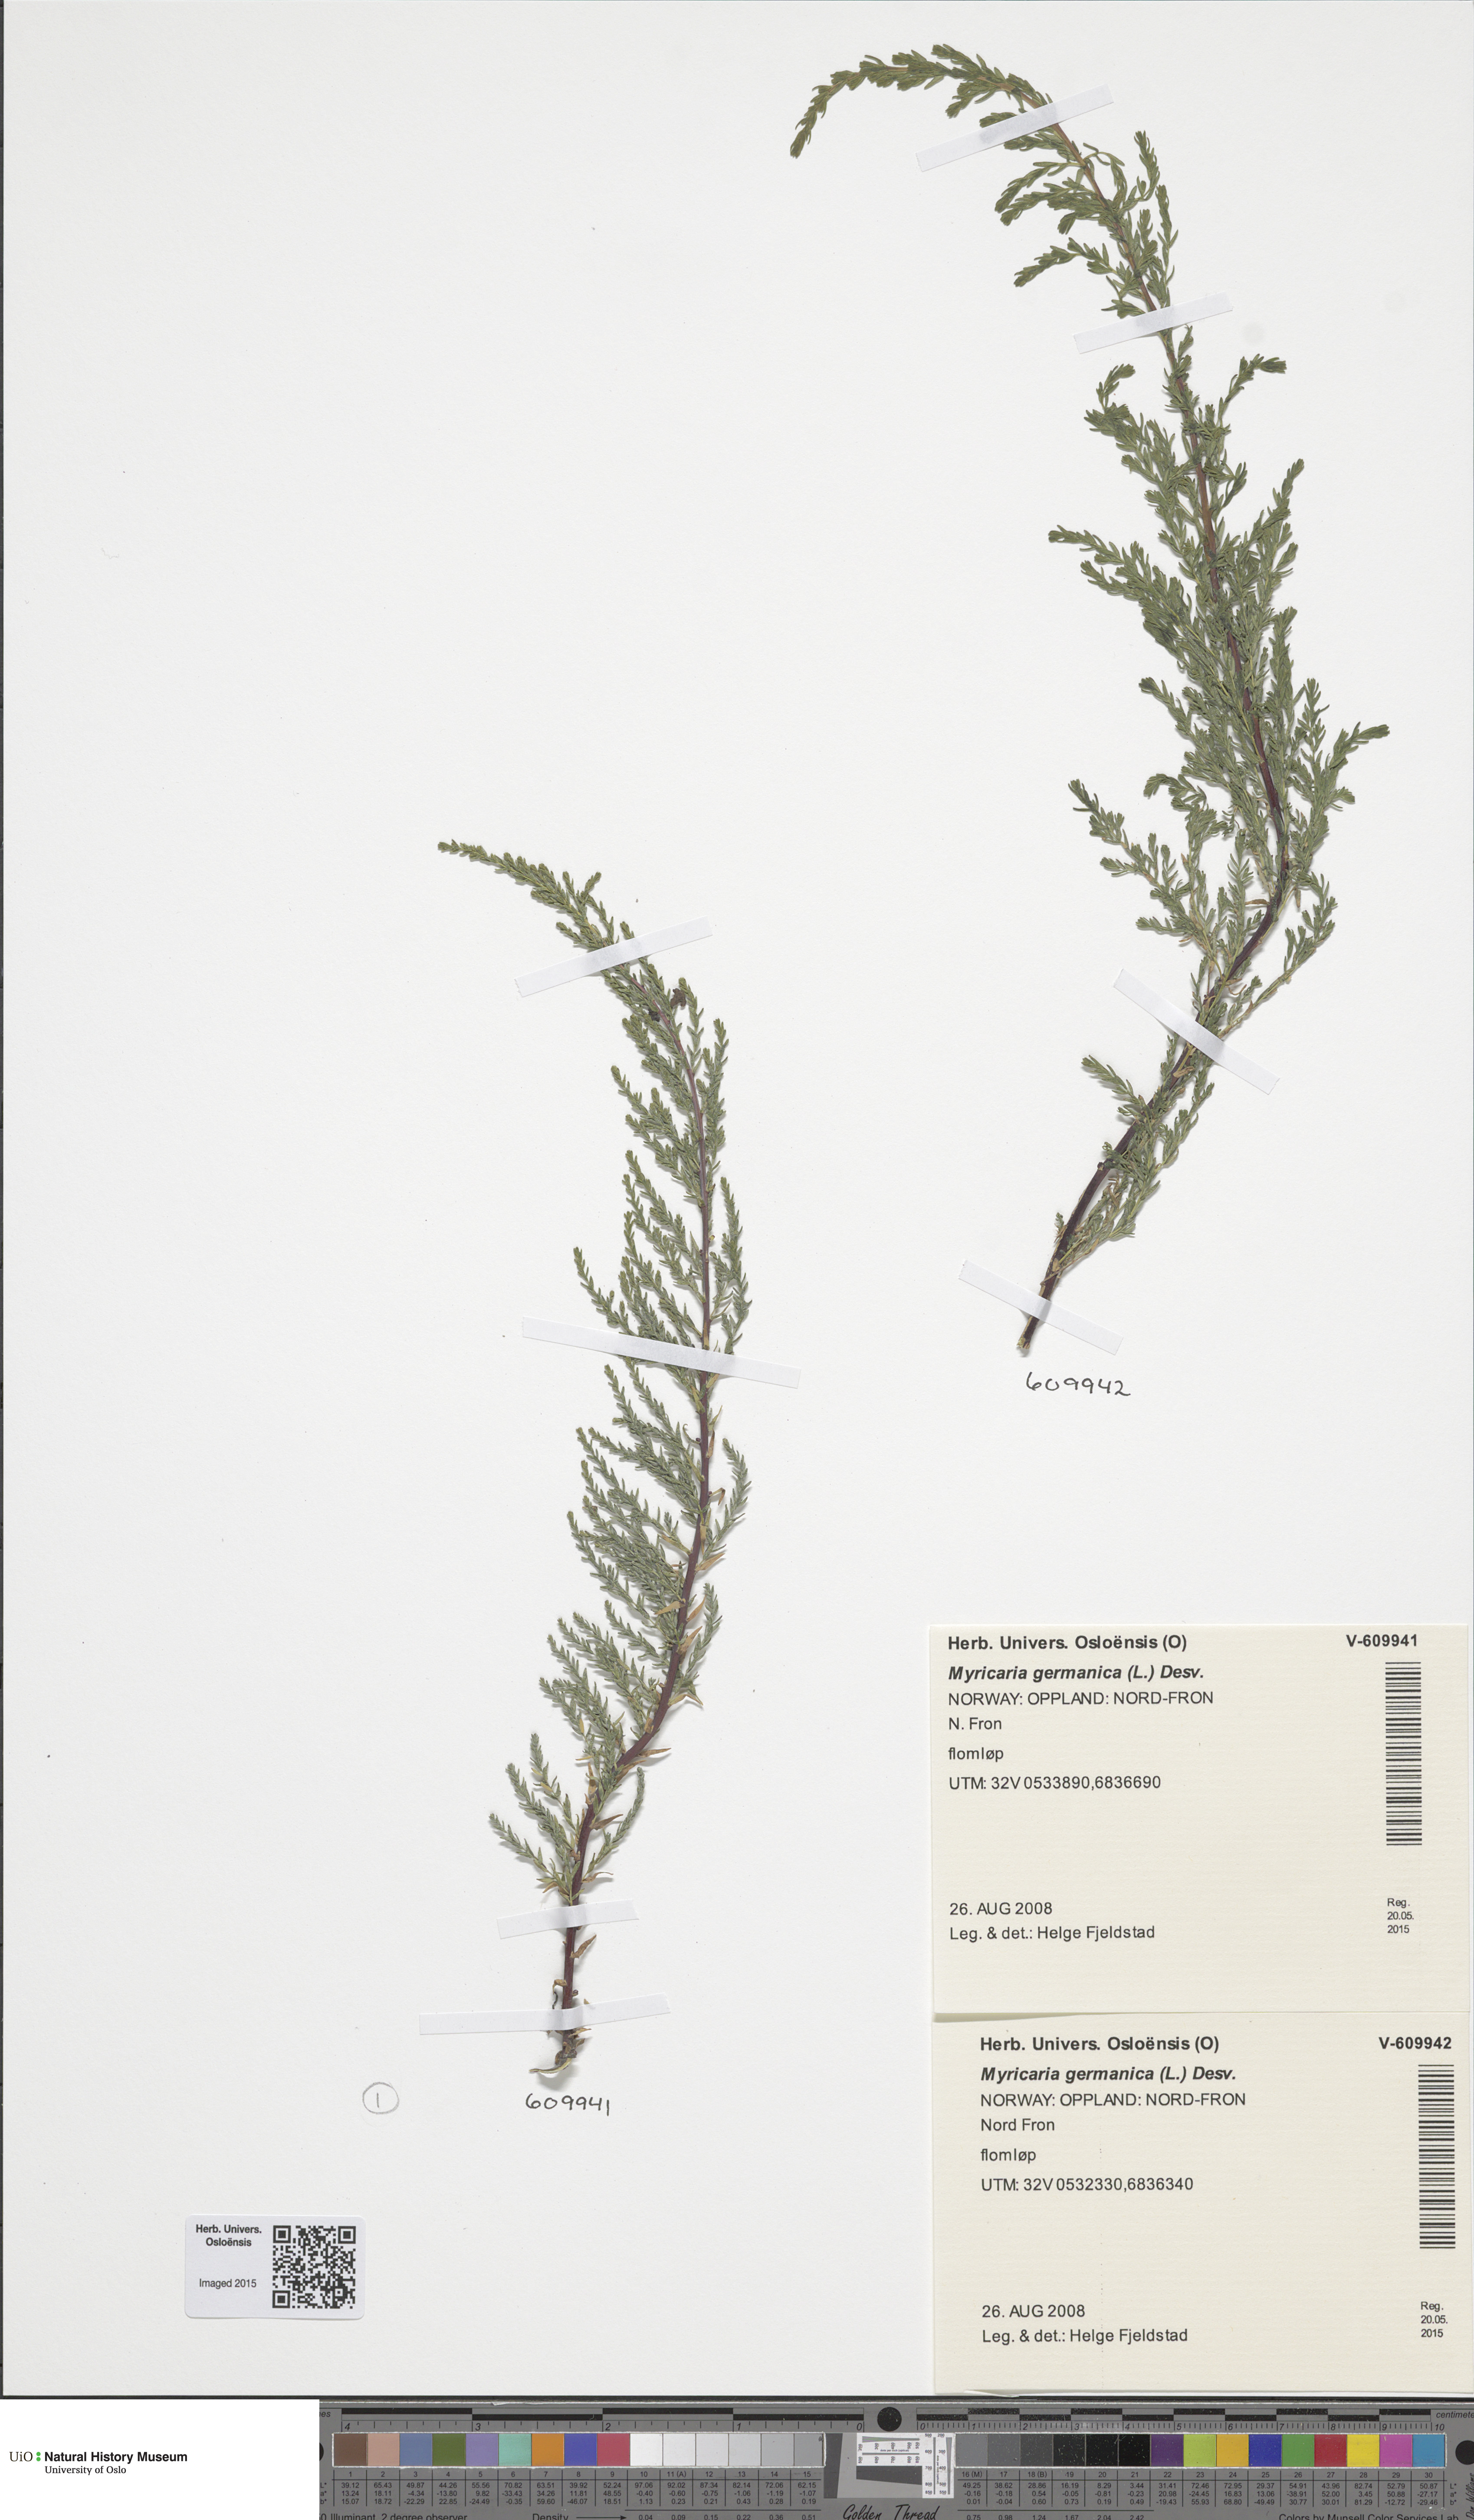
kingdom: Plantae
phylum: Tracheophyta
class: Magnoliopsida
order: Caryophyllales
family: Tamaricaceae
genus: Myricaria
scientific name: Myricaria germanica
